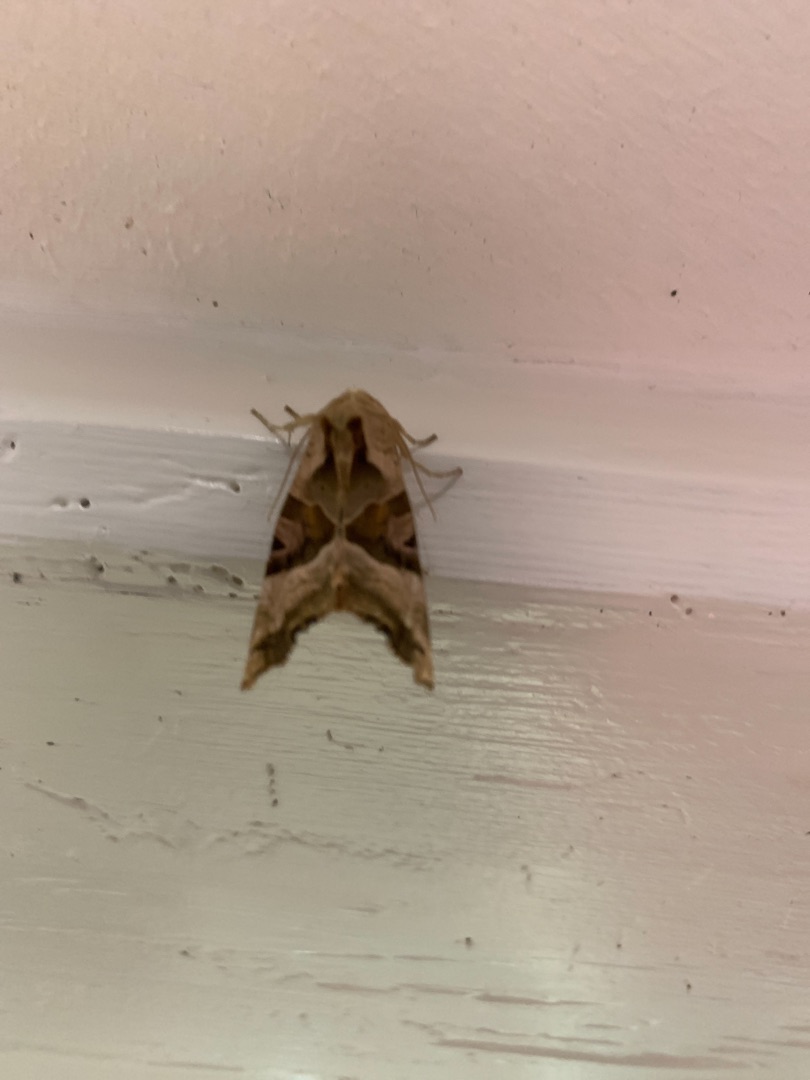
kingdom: Animalia
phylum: Arthropoda
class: Insecta
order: Lepidoptera
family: Noctuidae
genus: Phlogophora
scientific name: Phlogophora meticulosa
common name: Agatugle
